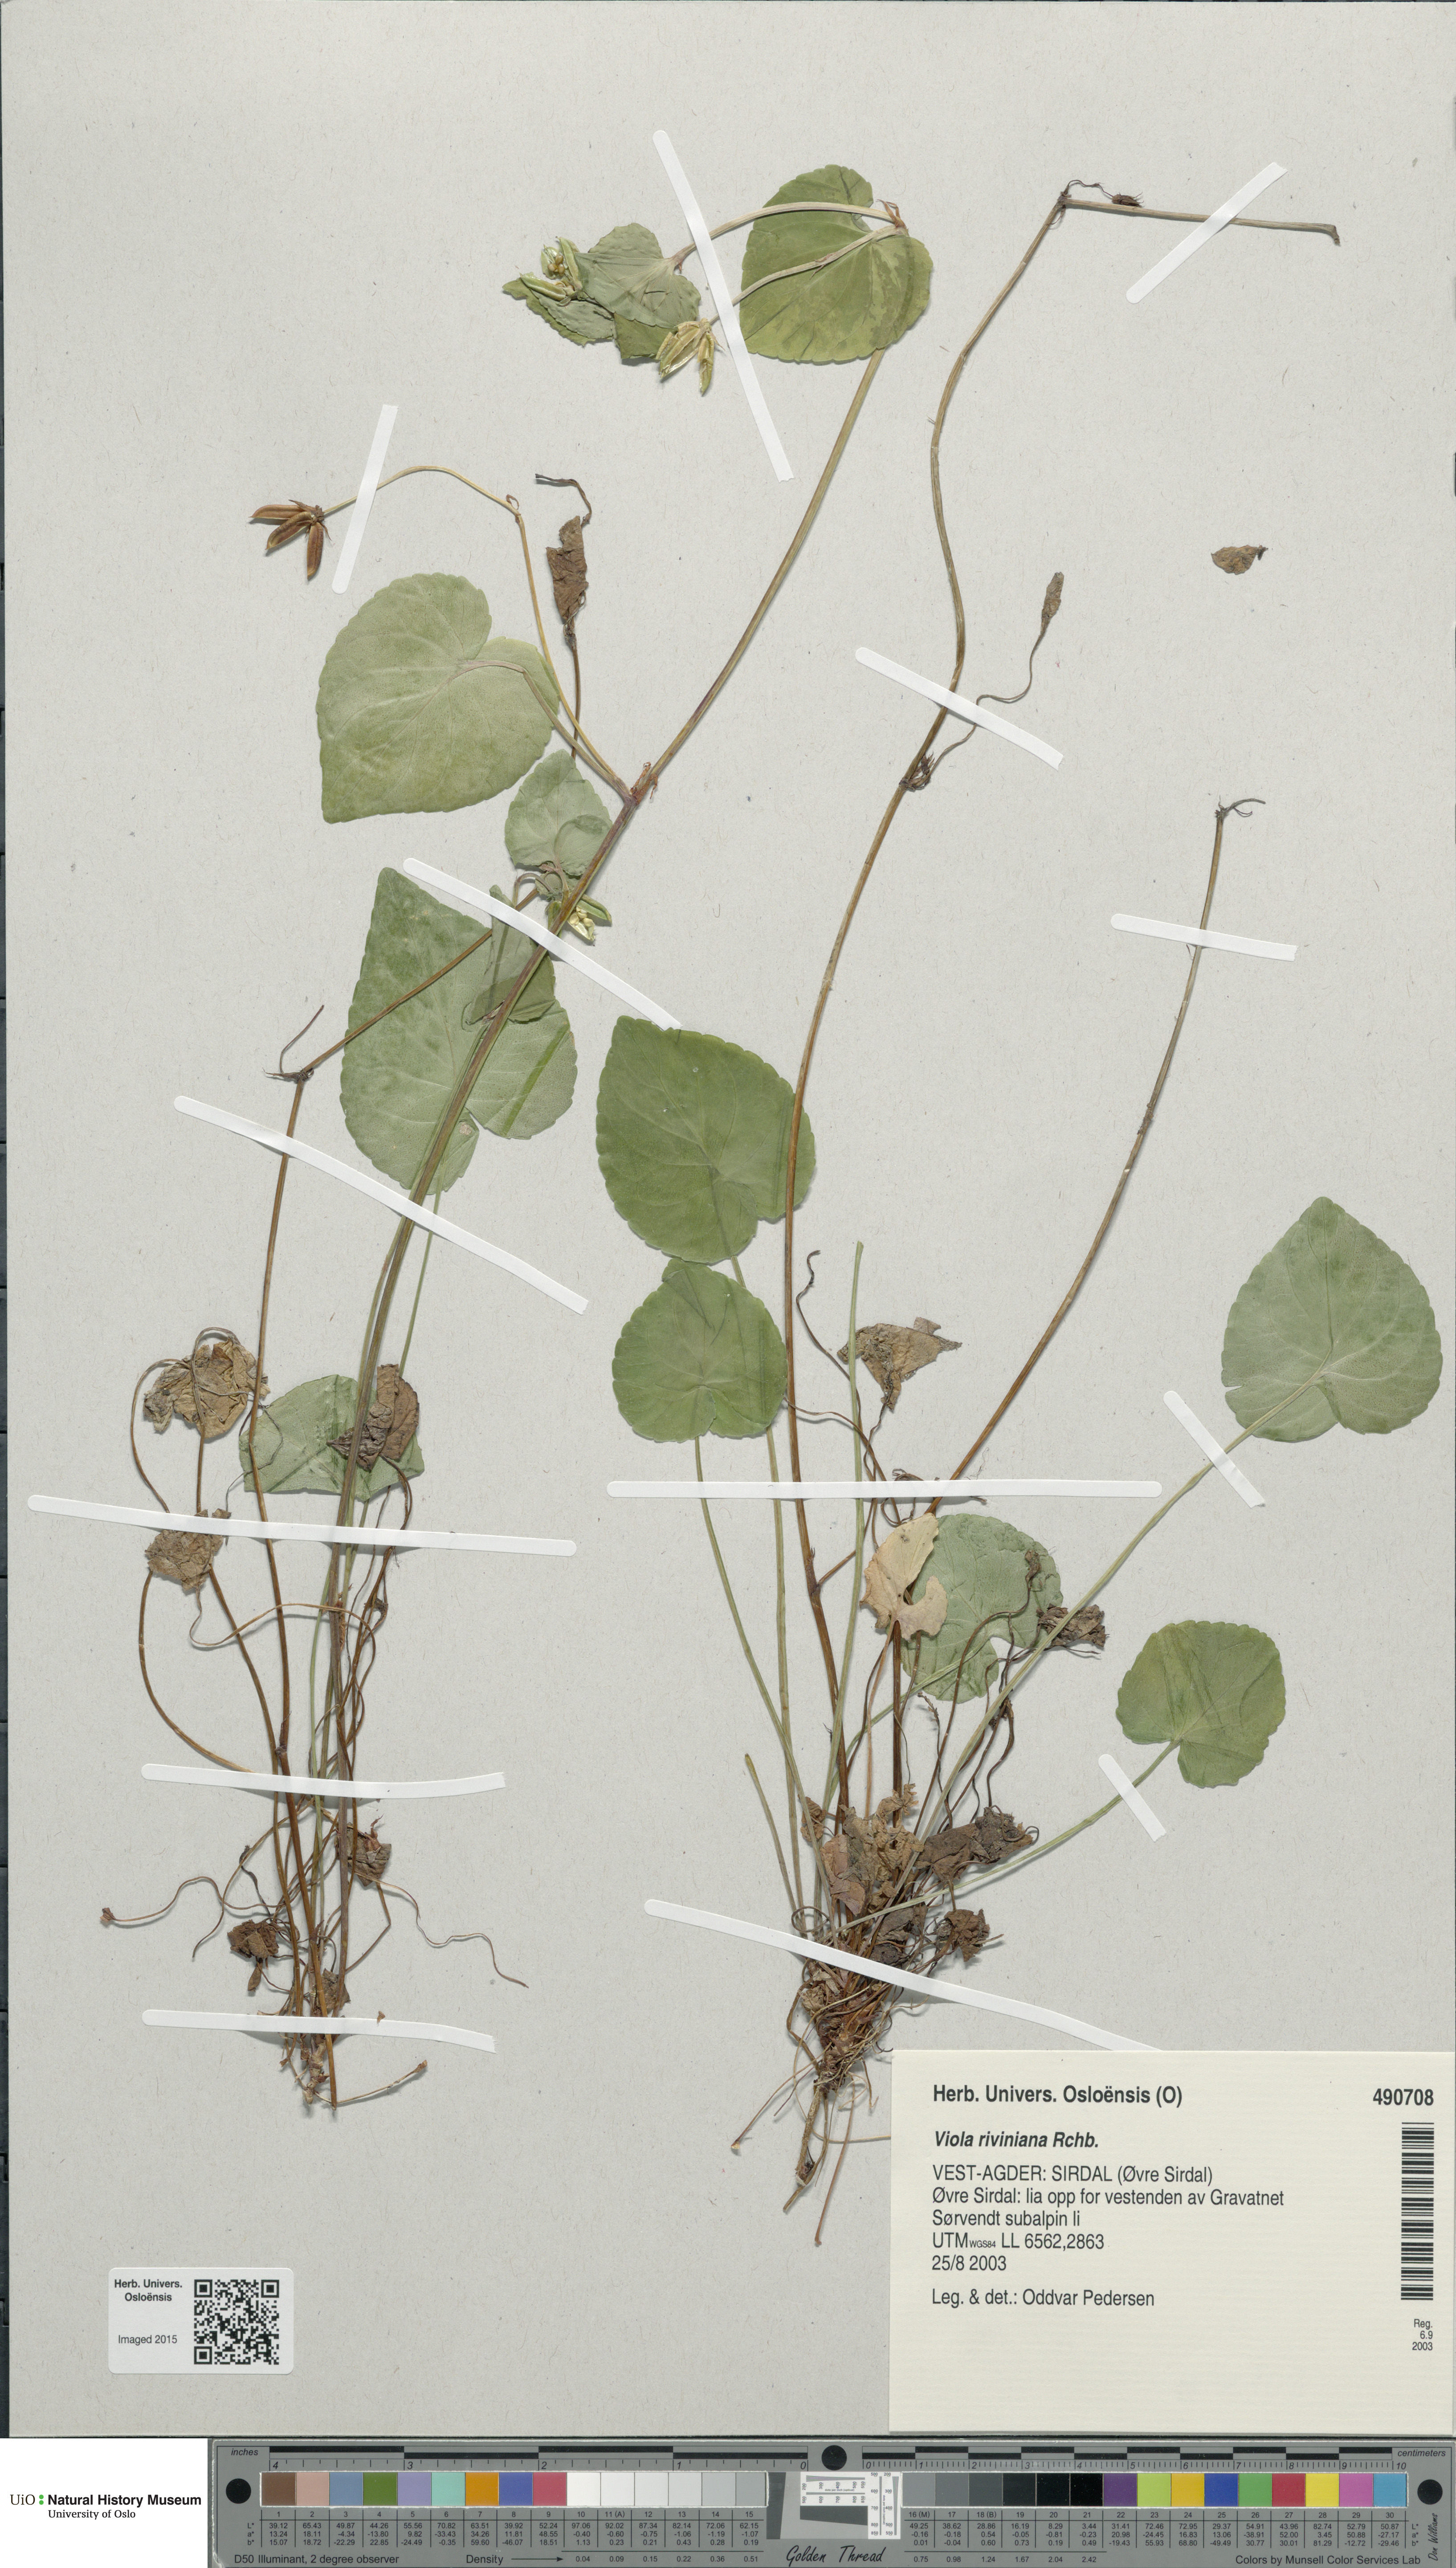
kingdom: Plantae
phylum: Tracheophyta
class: Magnoliopsida
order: Malpighiales
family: Violaceae
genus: Viola
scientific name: Viola riviniana
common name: Common dog-violet
